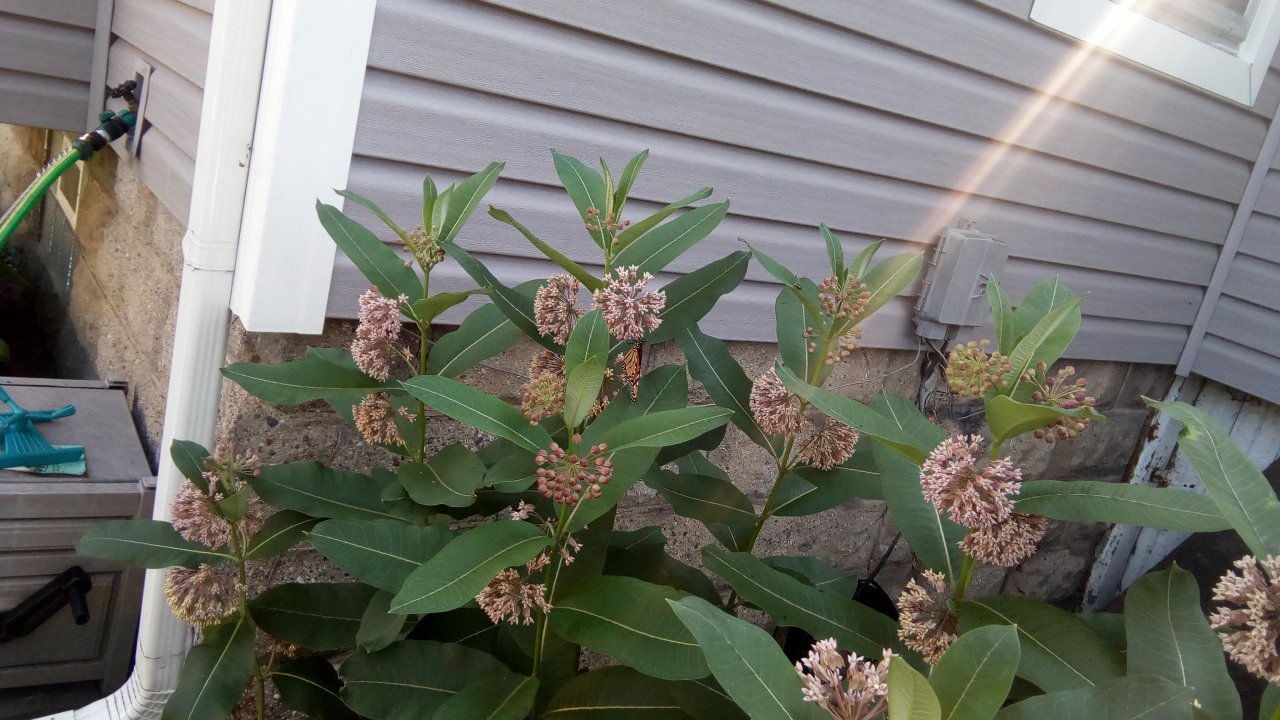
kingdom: Animalia
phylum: Arthropoda
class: Insecta
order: Lepidoptera
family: Nymphalidae
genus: Danaus
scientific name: Danaus plexippus
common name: Monarch
